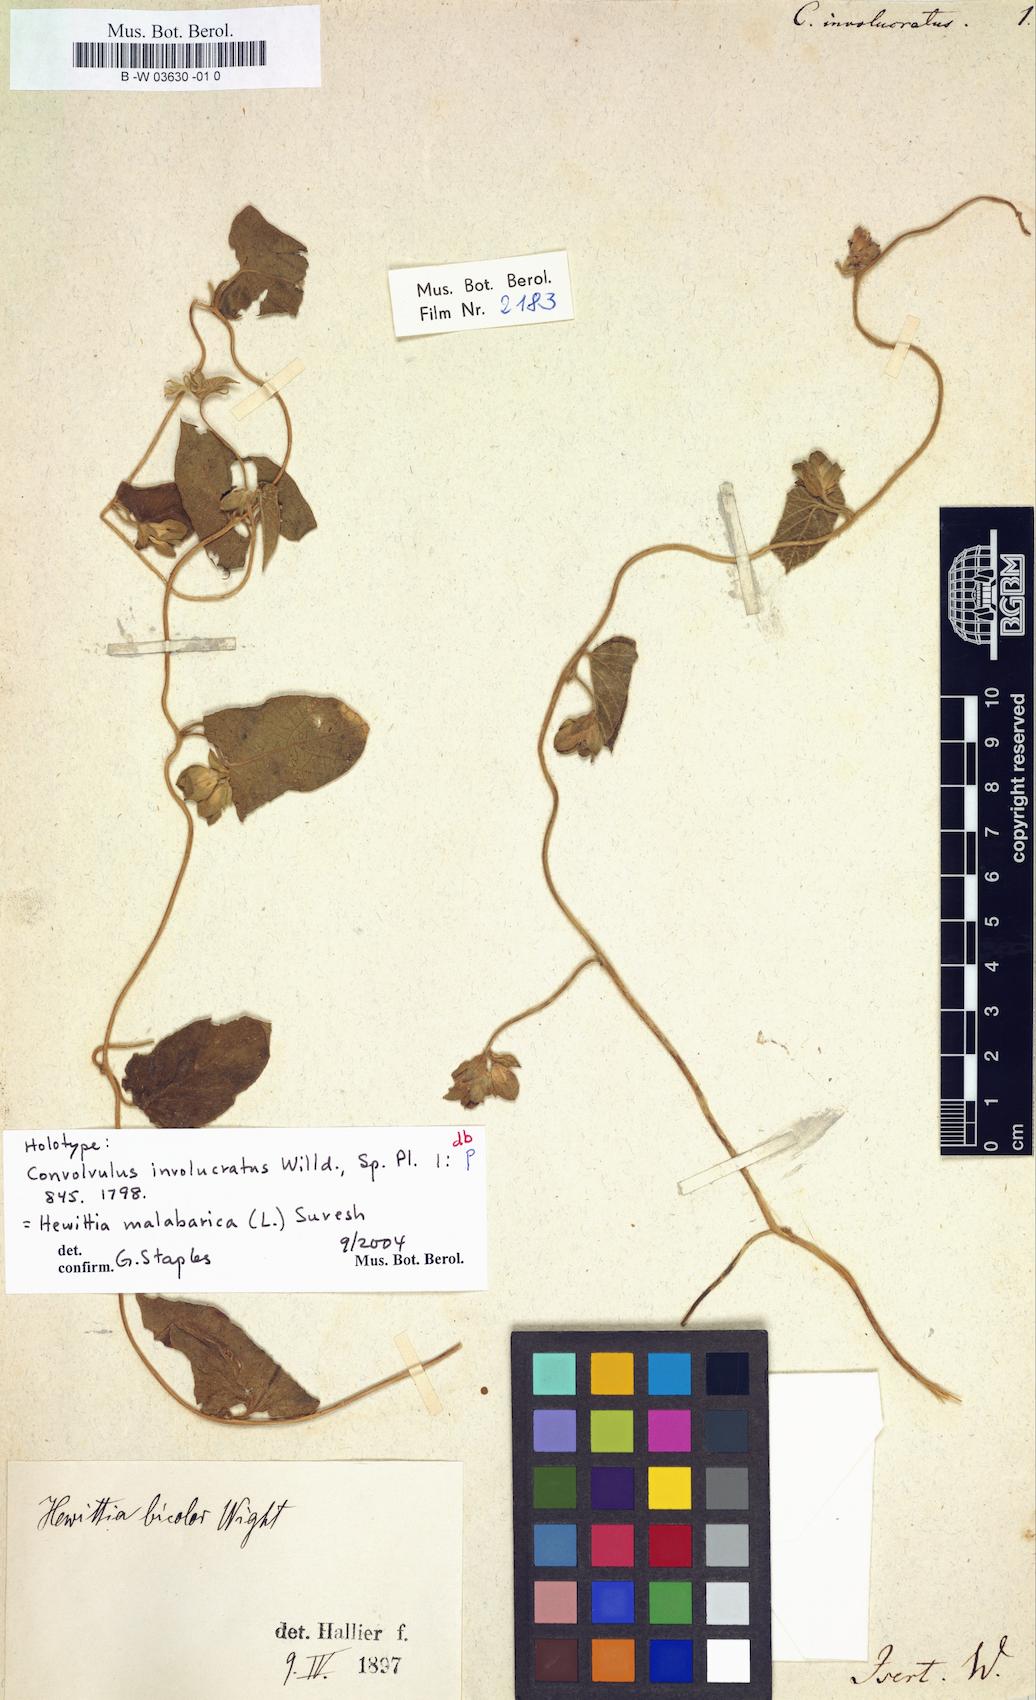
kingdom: Plantae
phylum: Tracheophyta
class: Magnoliopsida
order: Solanales
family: Convolvulaceae
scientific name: Convolvulaceae
